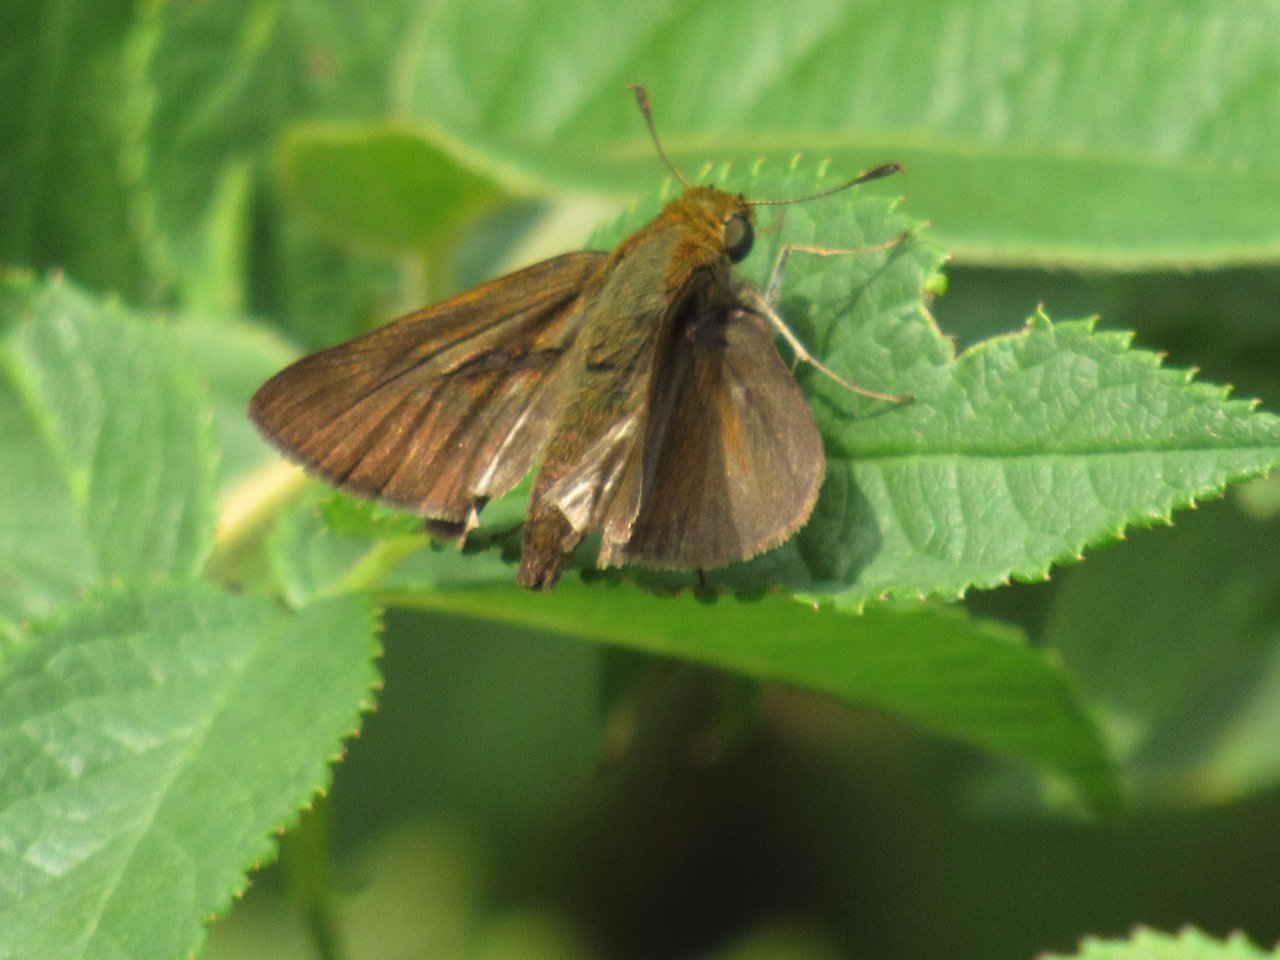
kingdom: Animalia
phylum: Arthropoda
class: Insecta
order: Lepidoptera
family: Hesperiidae
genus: Euphyes
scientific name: Euphyes vestris
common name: Dun Skipper
